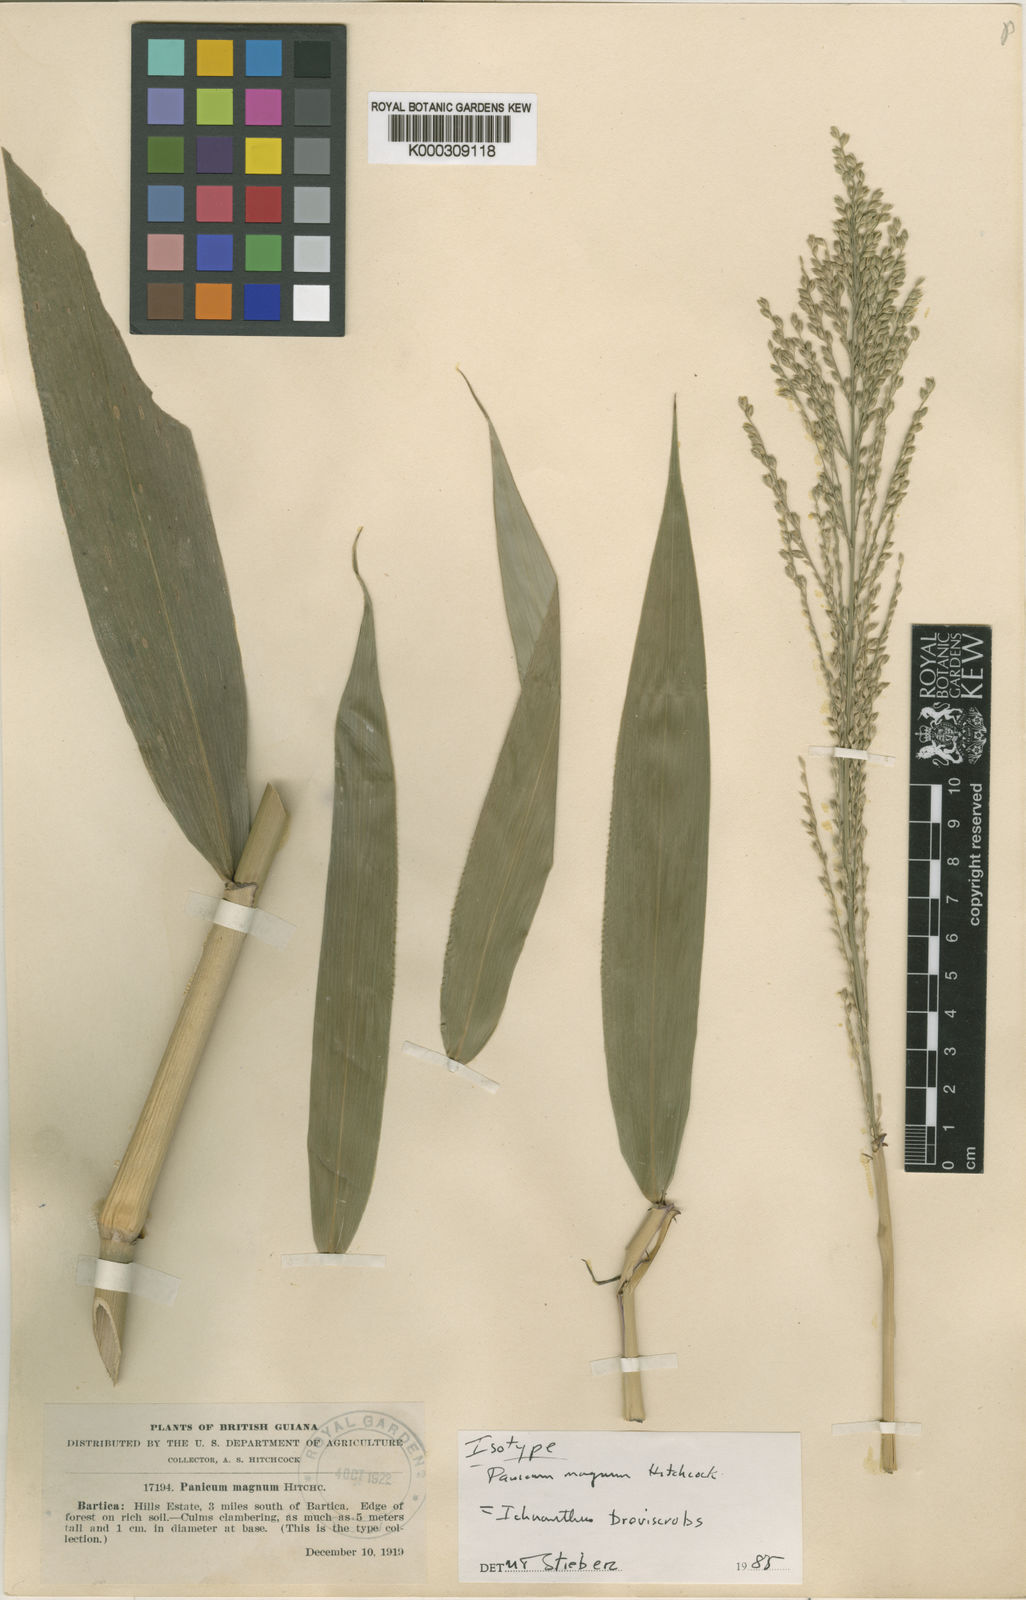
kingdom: Plantae
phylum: Tracheophyta
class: Liliopsida
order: Poales
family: Poaceae
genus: Ichnanthus
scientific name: Ichnanthus
